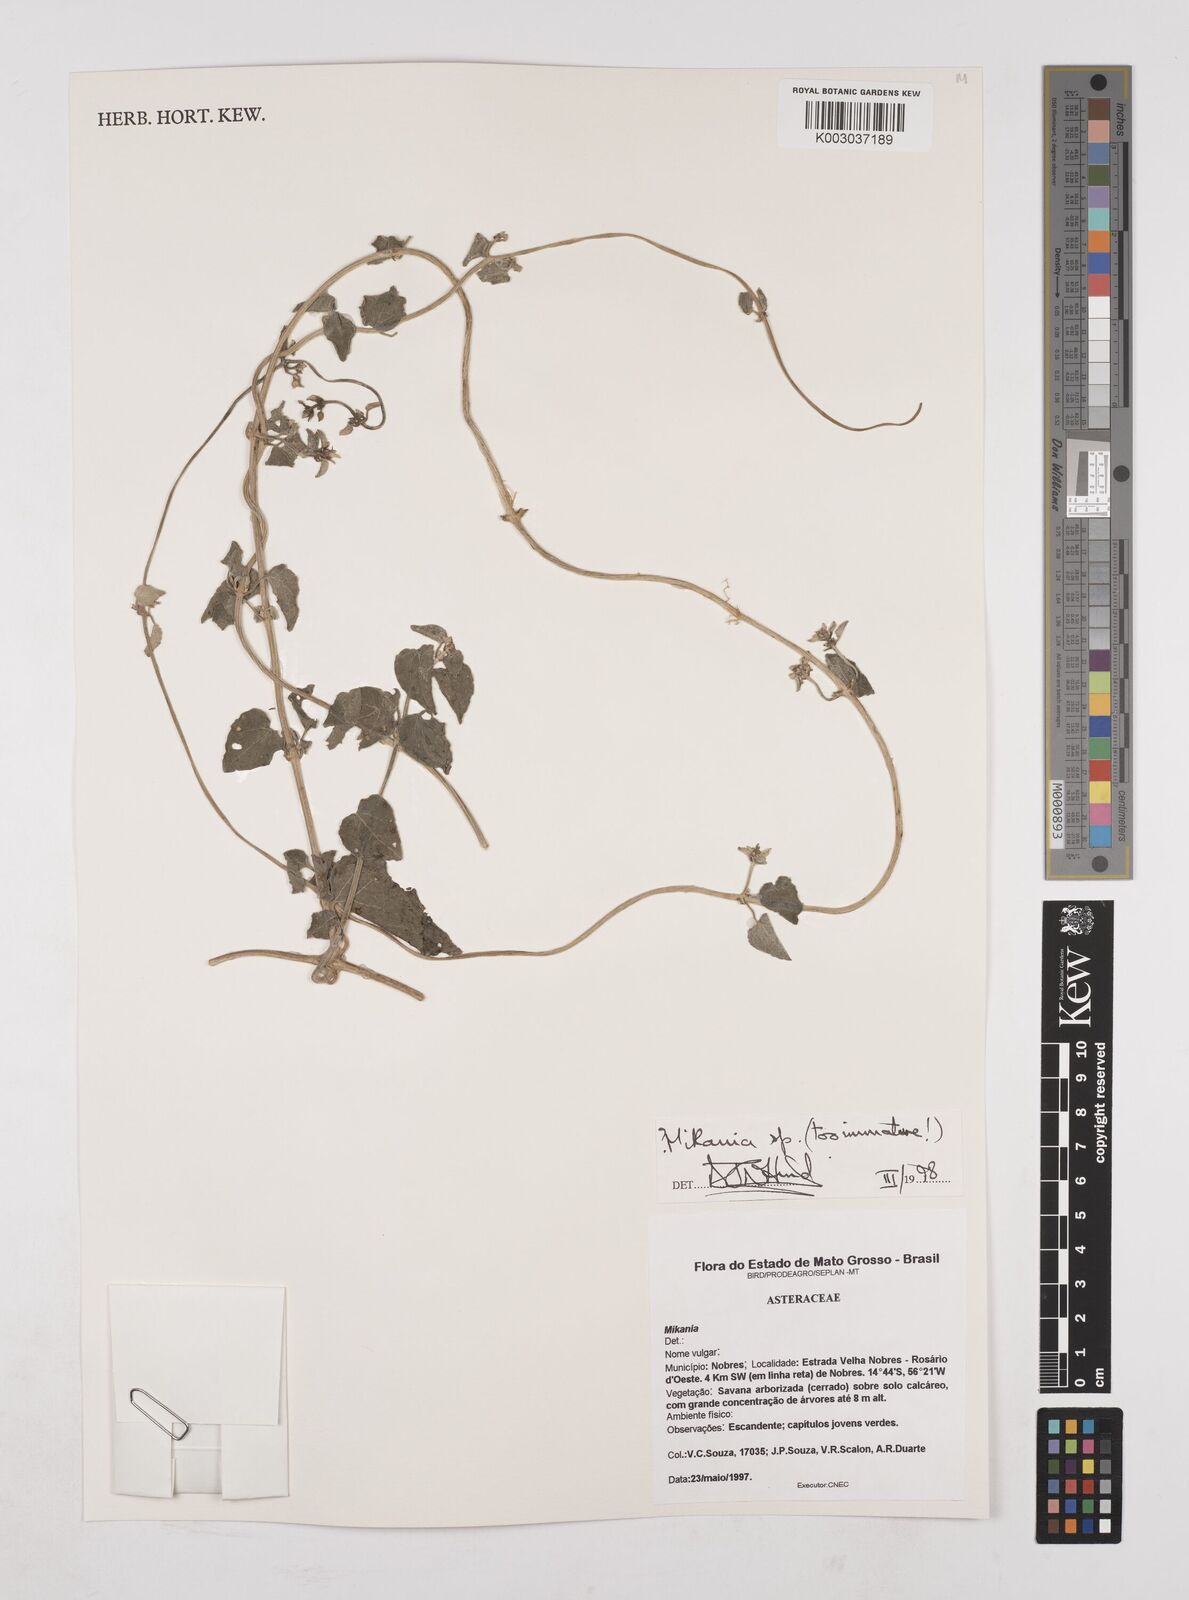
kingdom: Plantae
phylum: Tracheophyta
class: Magnoliopsida
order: Asterales
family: Asteraceae
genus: Mikania
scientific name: Mikania
